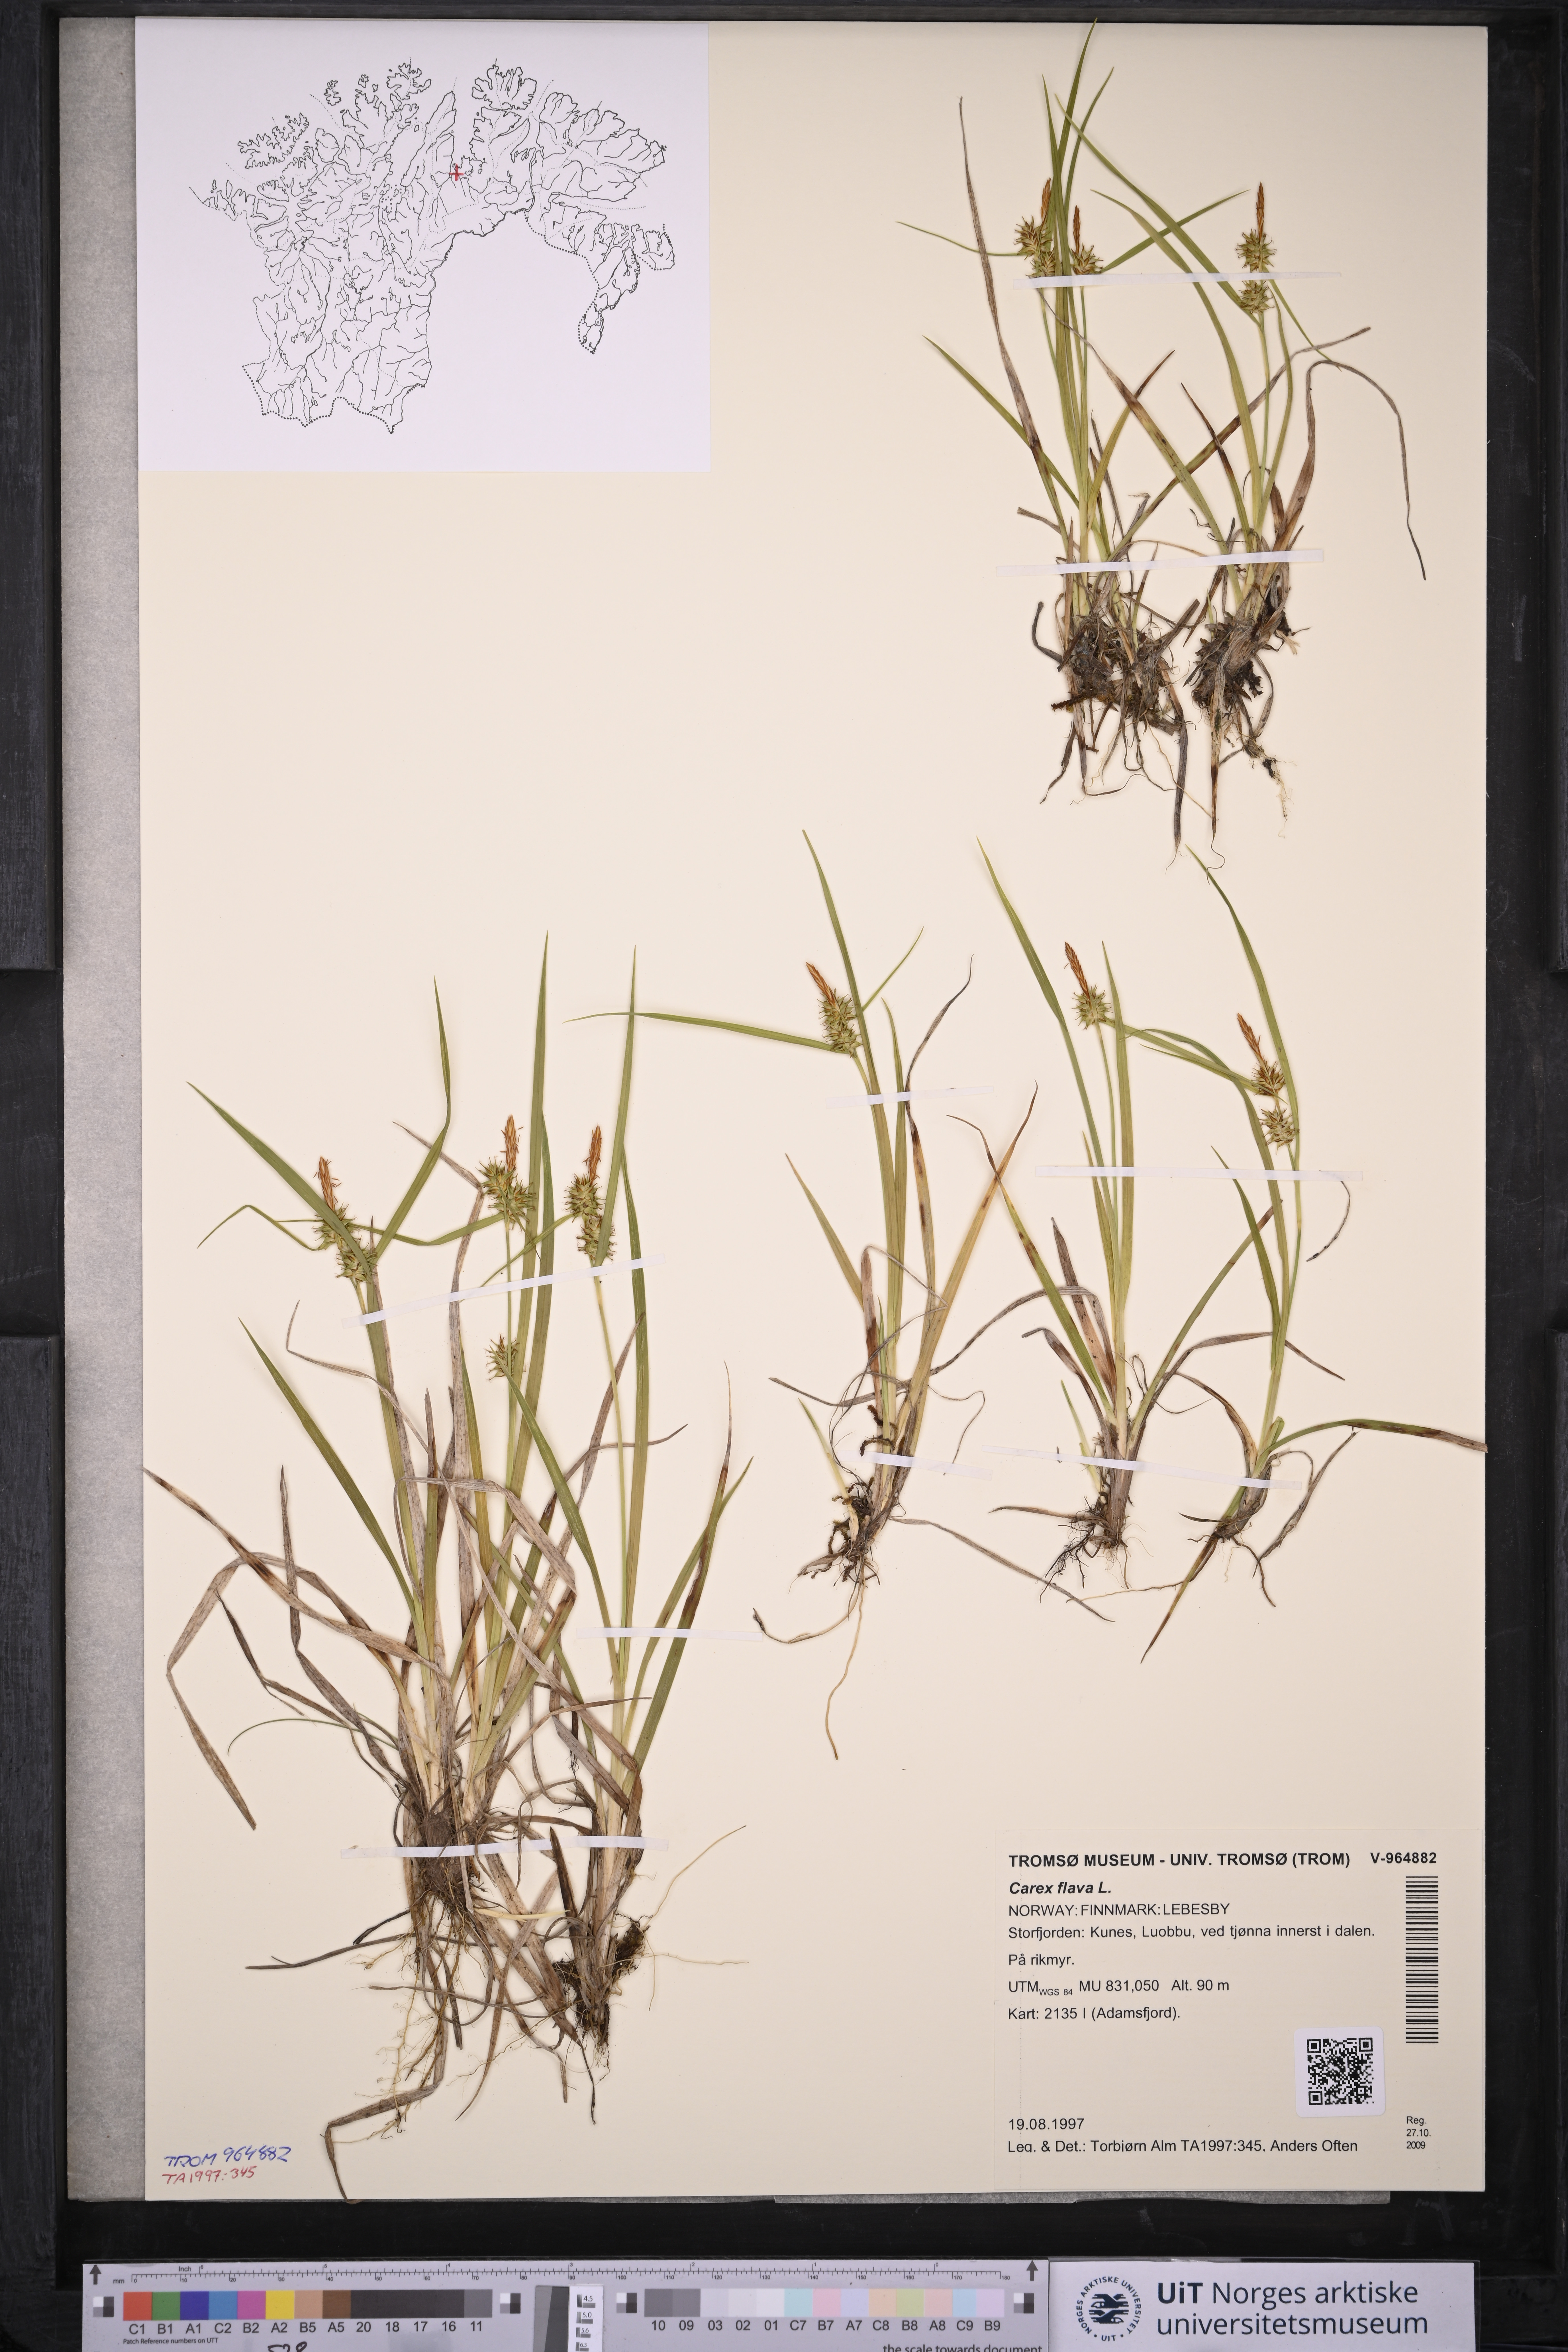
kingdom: Plantae
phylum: Tracheophyta
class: Liliopsida
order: Poales
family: Cyperaceae
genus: Carex
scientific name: Carex flava
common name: Large yellow-sedge
